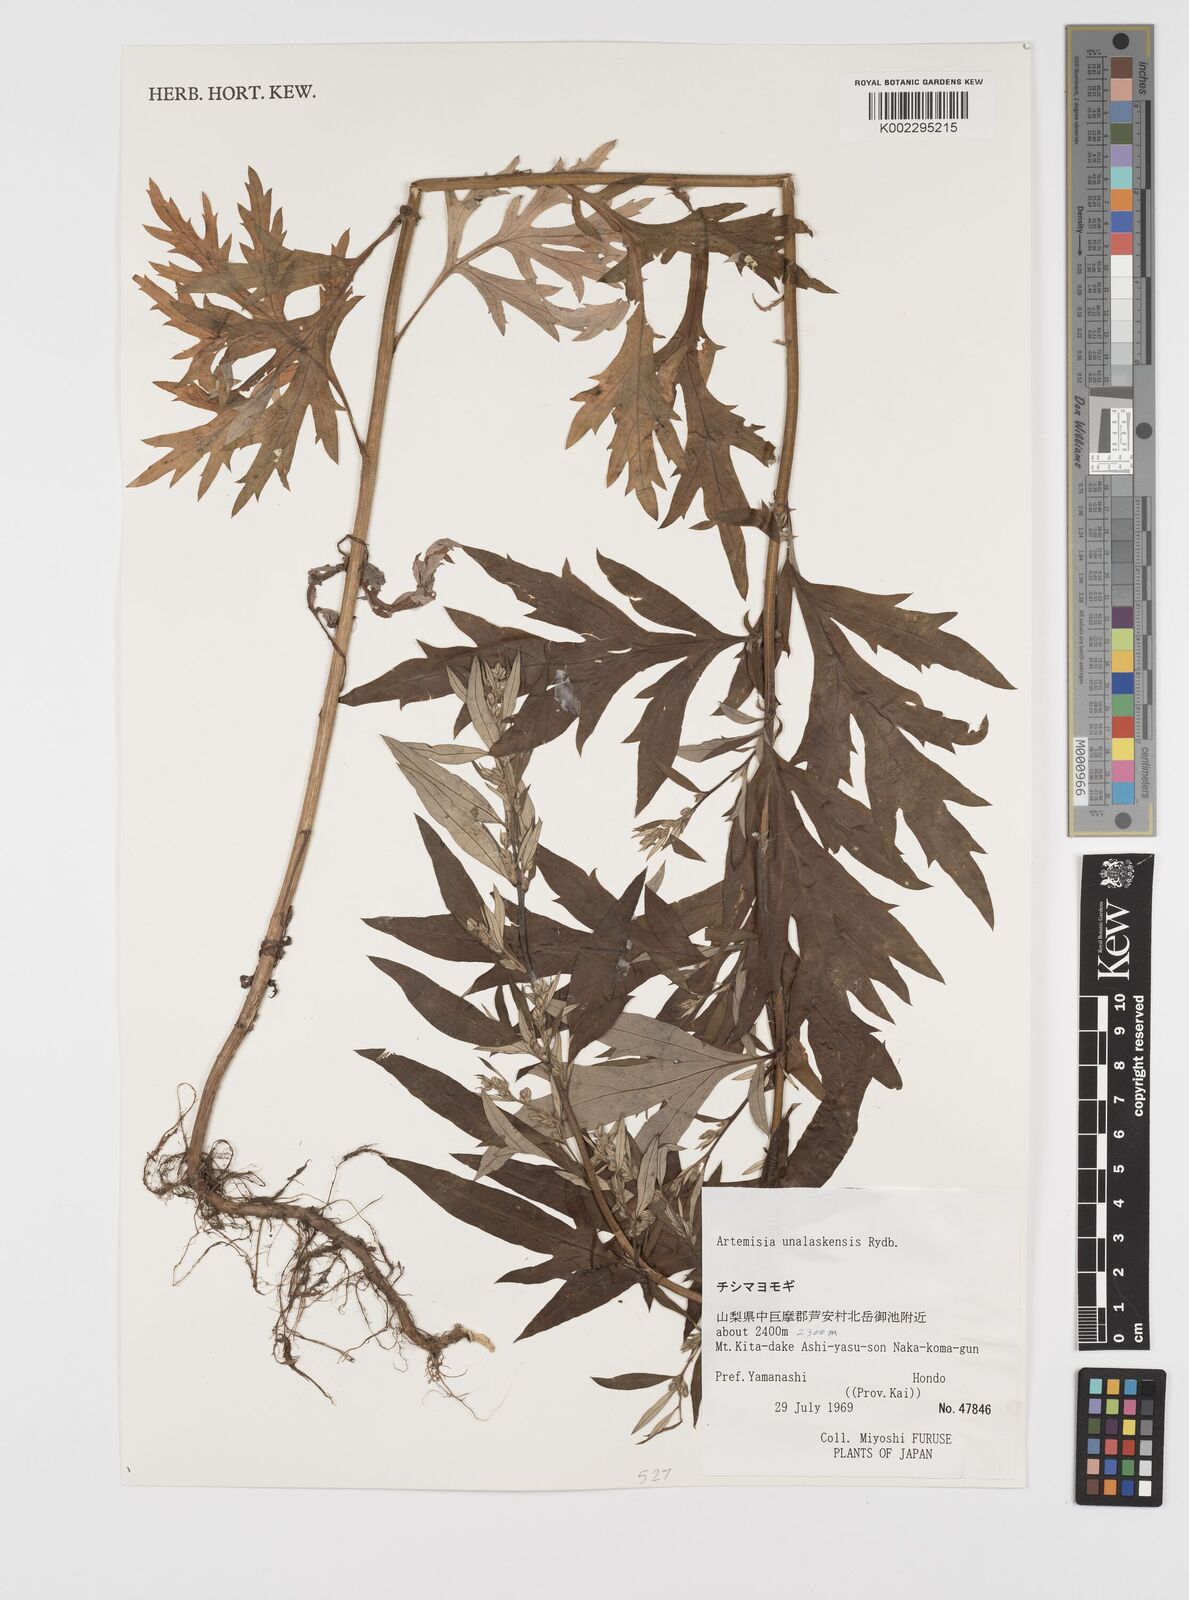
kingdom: Plantae
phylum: Tracheophyta
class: Magnoliopsida
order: Asterales
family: Asteraceae
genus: Artemisia
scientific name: Artemisia tilesii
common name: Aleutian mugwort
